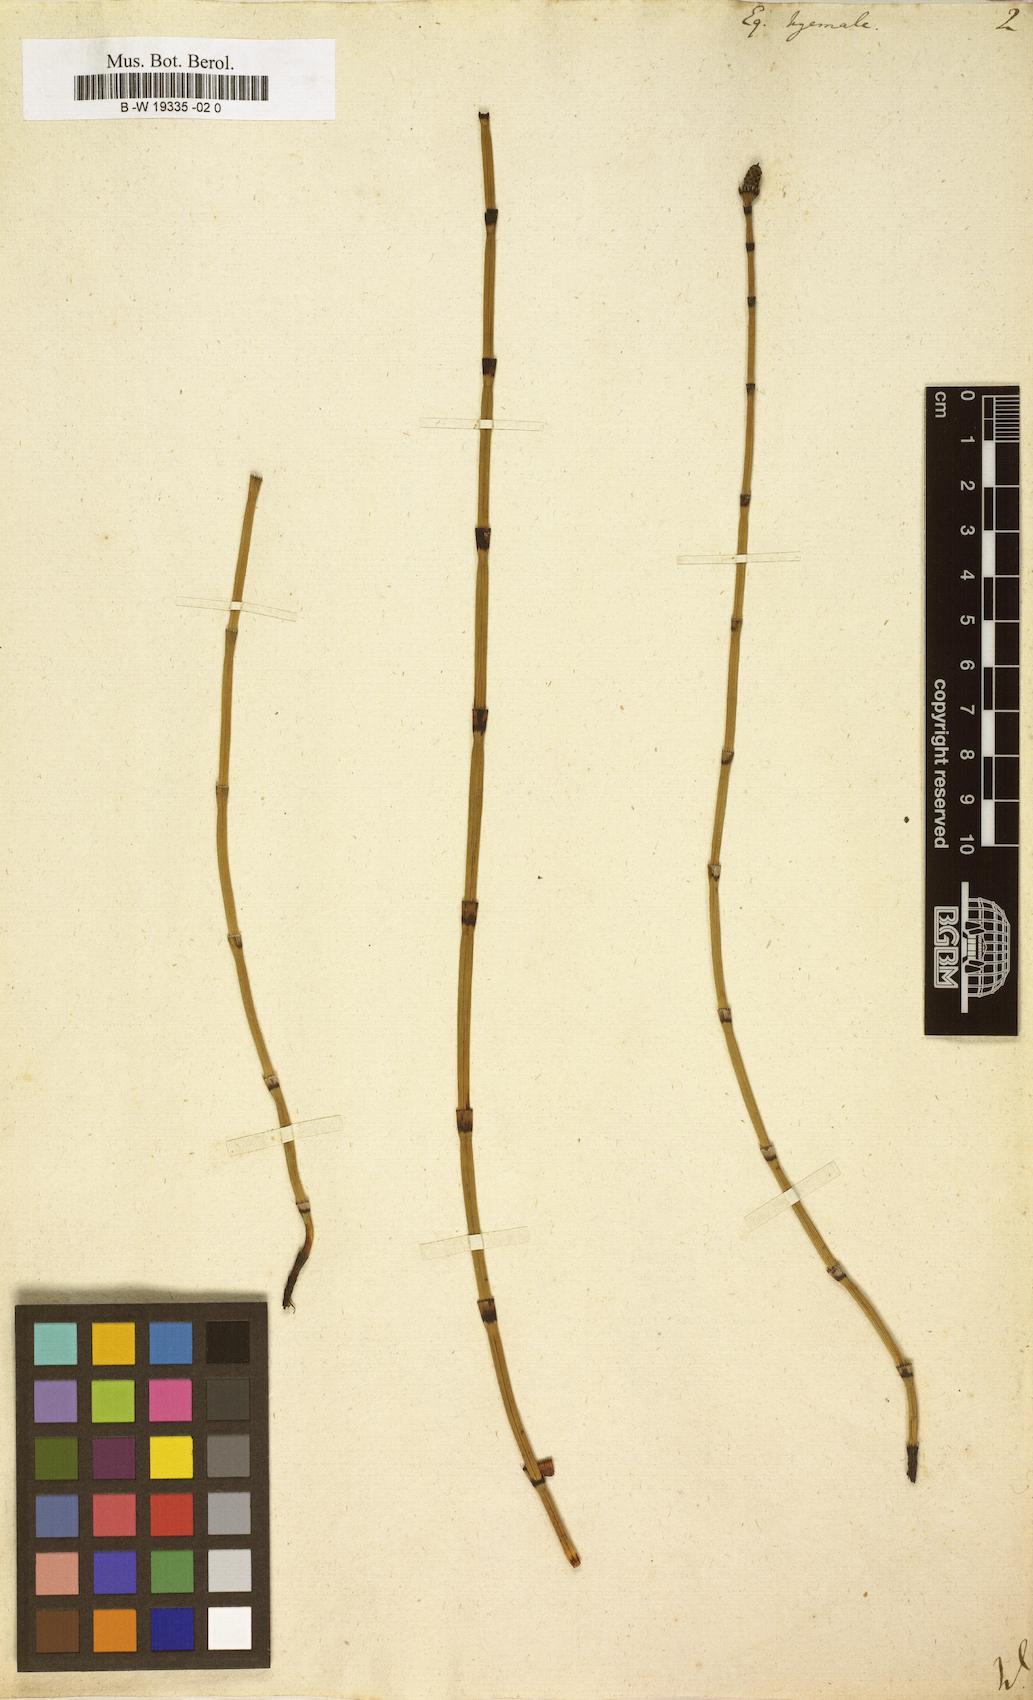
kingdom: Plantae
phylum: Tracheophyta
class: Polypodiopsida
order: Equisetales
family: Equisetaceae
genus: Equisetum
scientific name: Equisetum hyemale
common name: Rough horsetail
